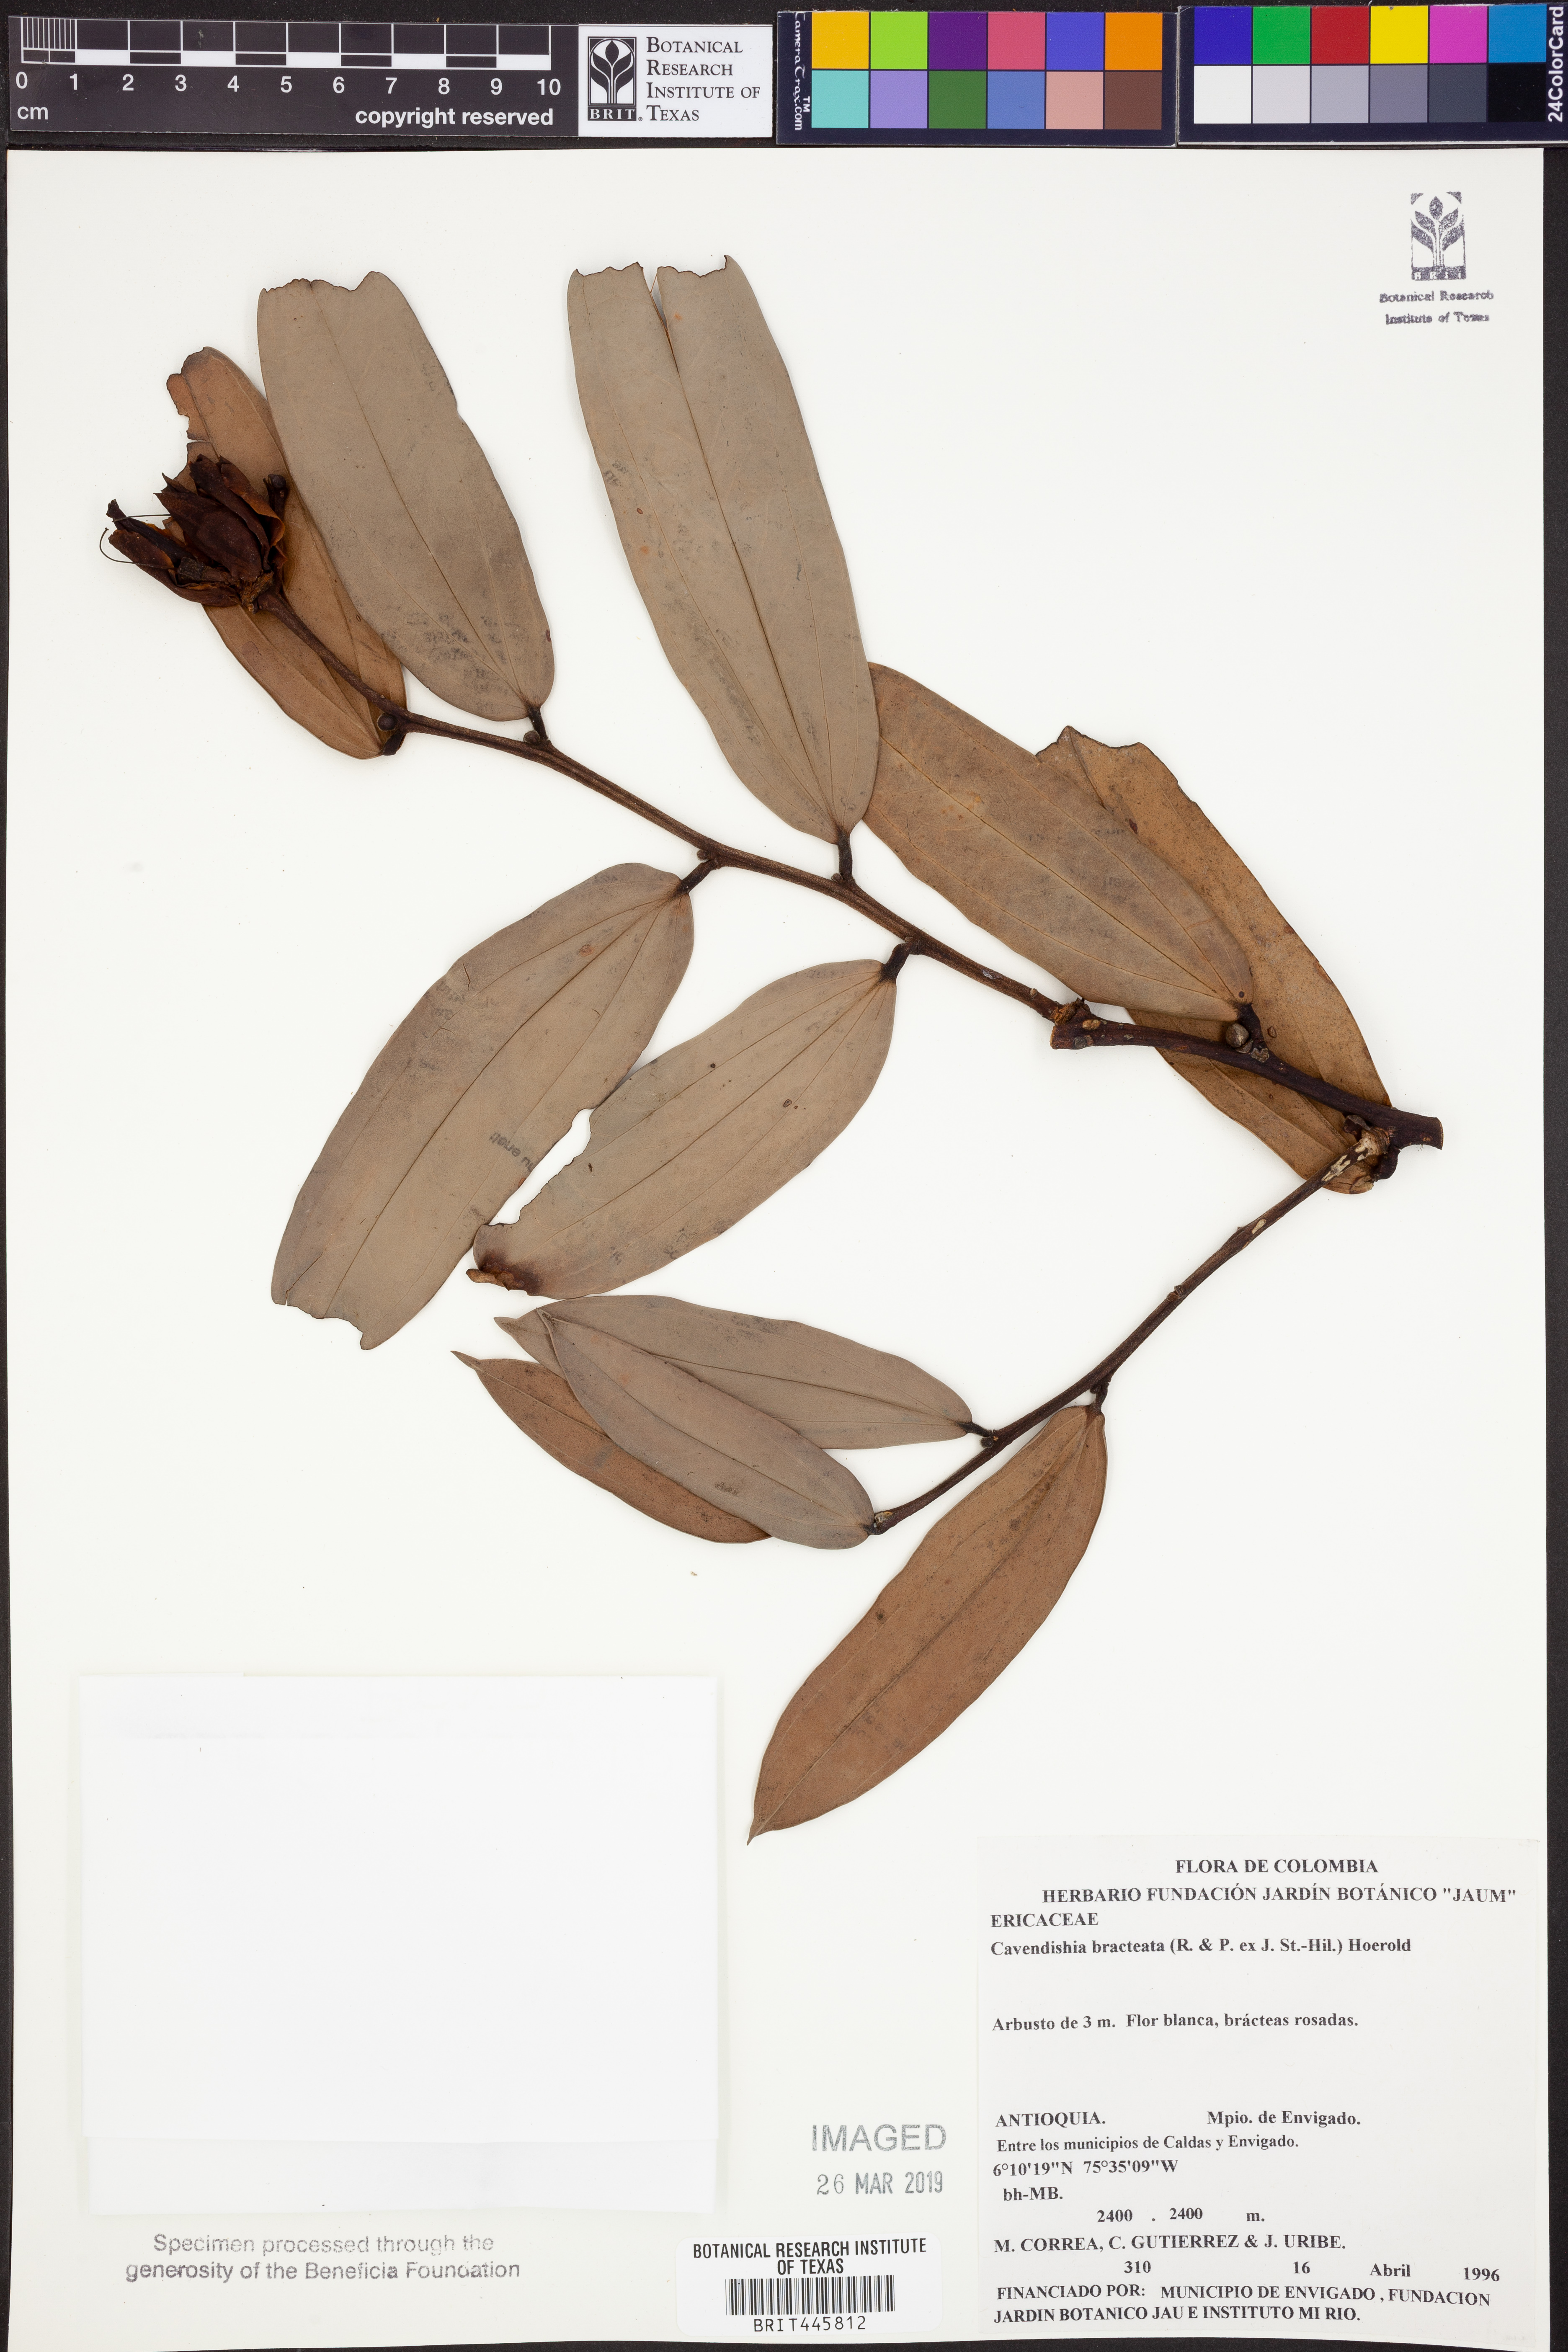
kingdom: Plantae
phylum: Tracheophyta
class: Magnoliopsida
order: Ericales
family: Ericaceae
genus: Cavendishia
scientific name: Cavendishia bracteata
